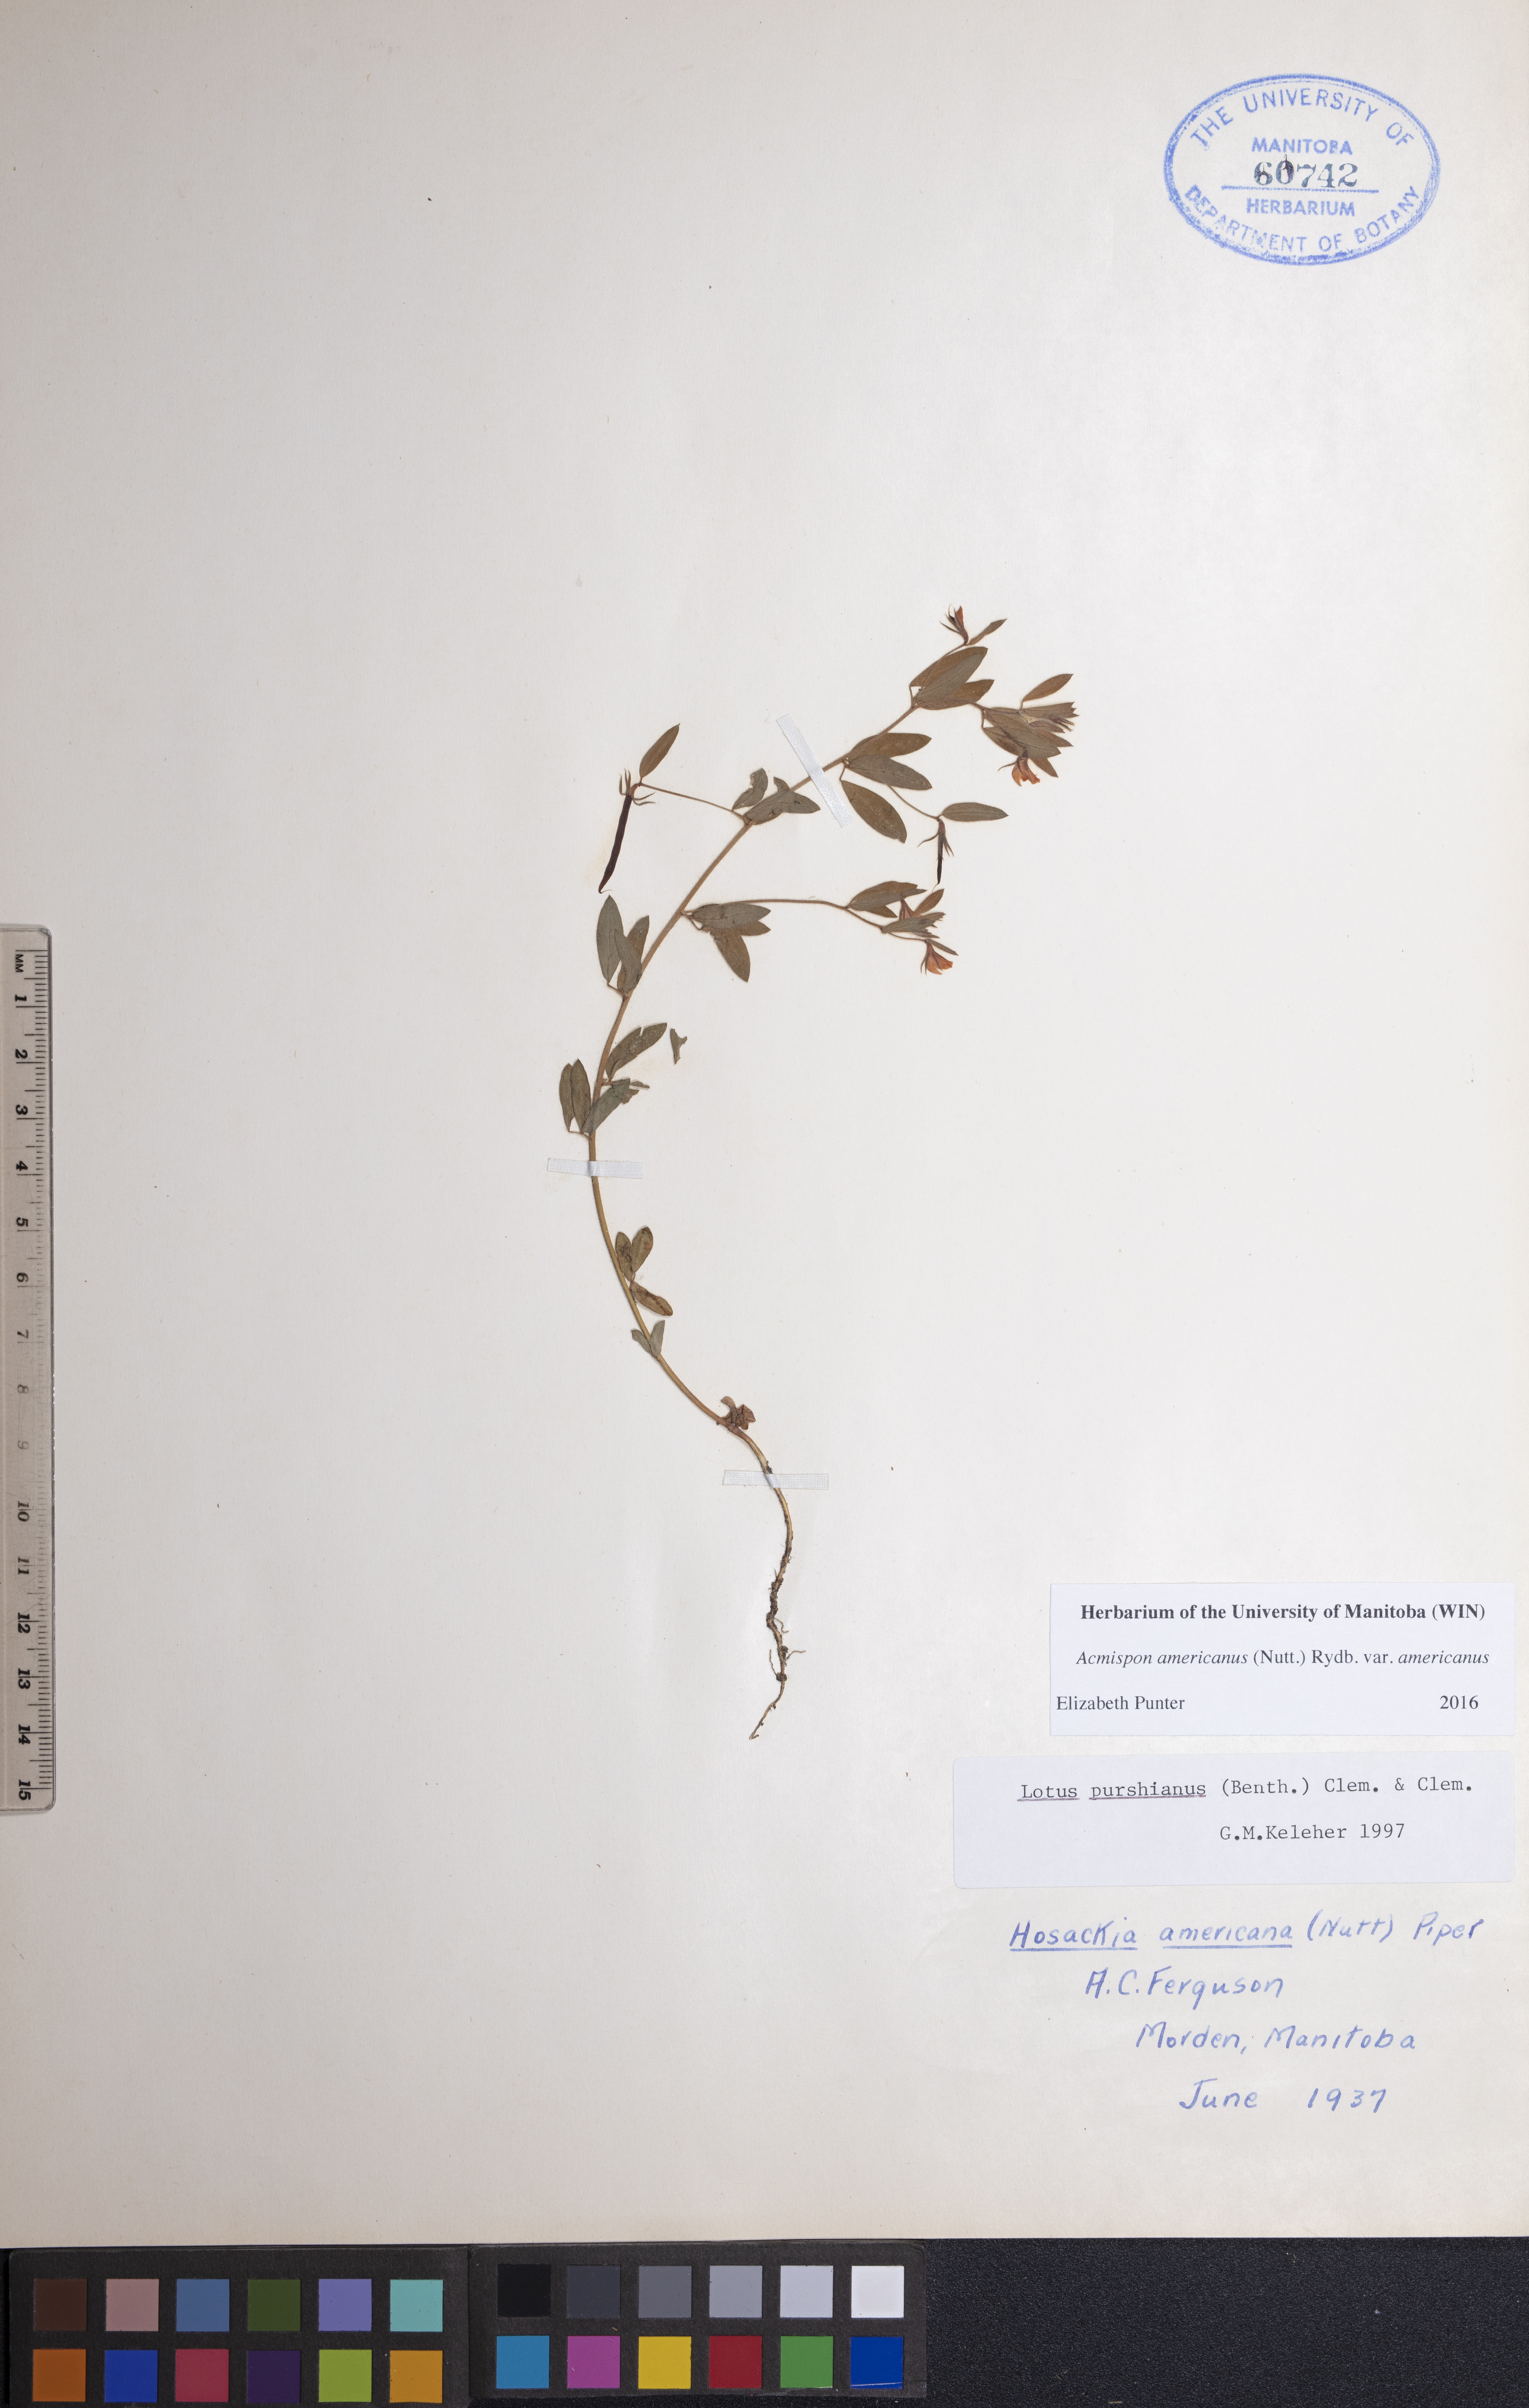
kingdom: Plantae
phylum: Tracheophyta
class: Magnoliopsida
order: Fabales
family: Fabaceae
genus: Acmispon
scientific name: Acmispon americanus
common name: American bird's-foot trefoil
